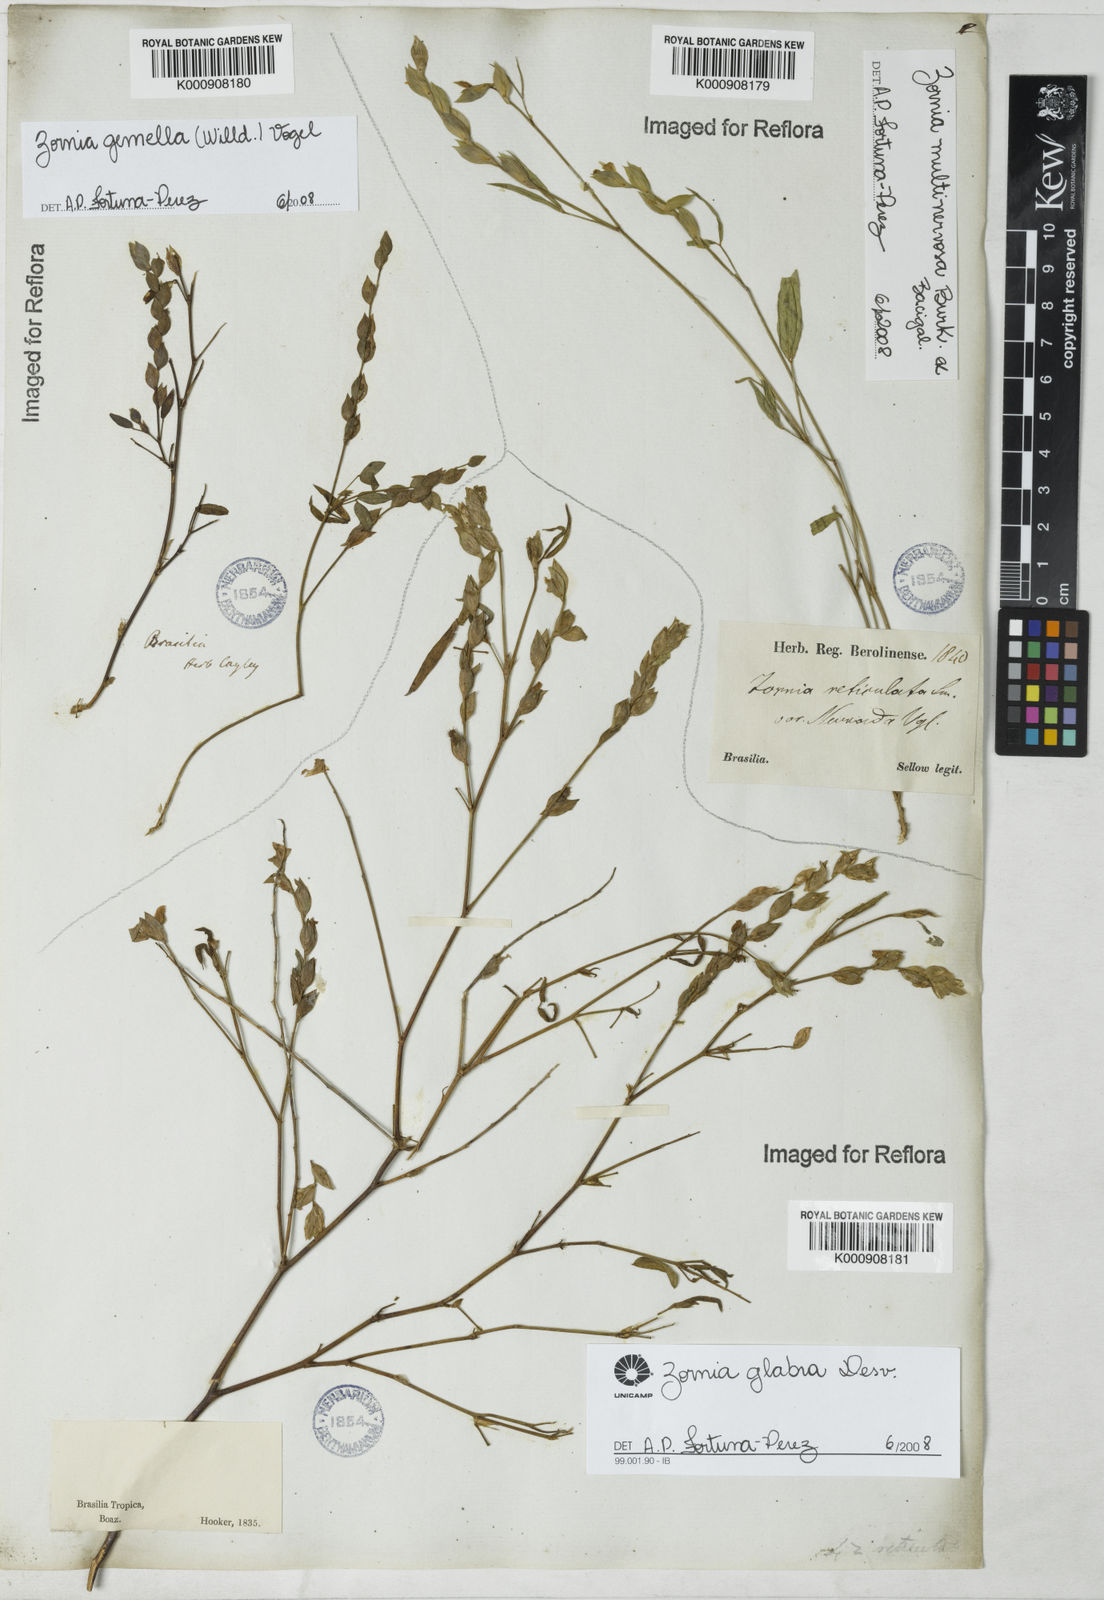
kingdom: Plantae
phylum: Tracheophyta
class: Magnoliopsida
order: Fabales
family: Fabaceae
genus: Zornia
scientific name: Zornia glabra
